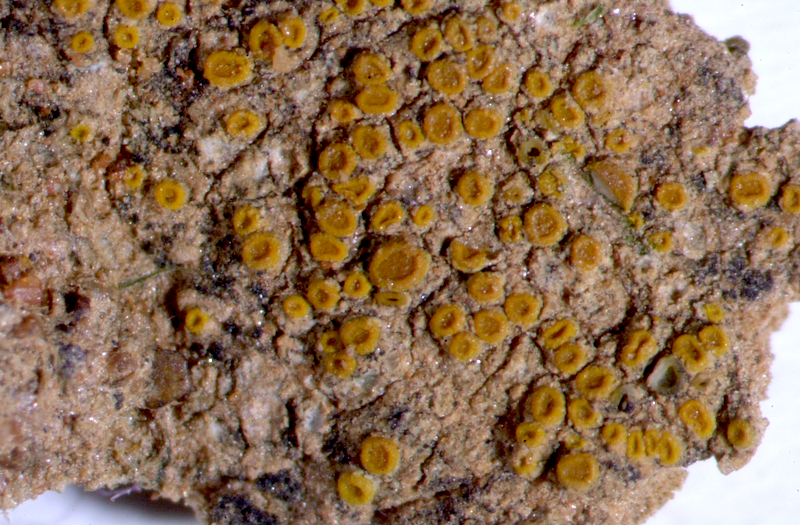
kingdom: Fungi
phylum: Ascomycota
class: Lecanoromycetes
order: Teloschistales
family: Letrouitiaceae
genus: Letrouitia
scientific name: Letrouitia
